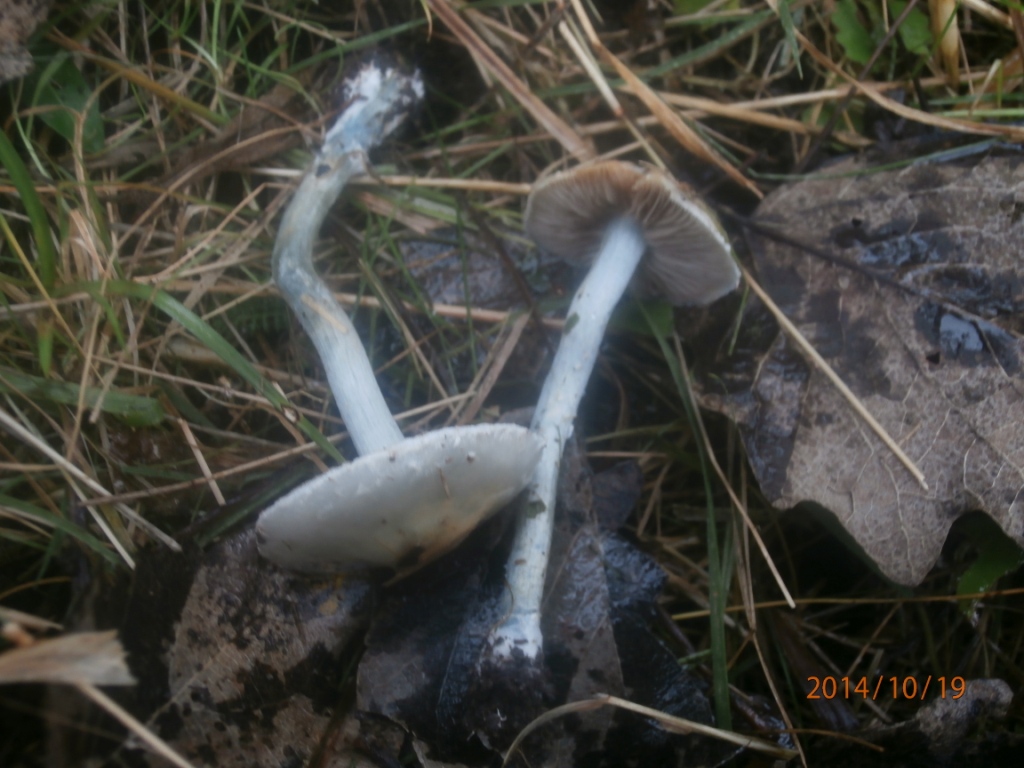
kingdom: Fungi
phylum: Basidiomycota
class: Agaricomycetes
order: Agaricales
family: Strophariaceae
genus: Stropharia
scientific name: Stropharia cyanea
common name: blågrøn bredblad
